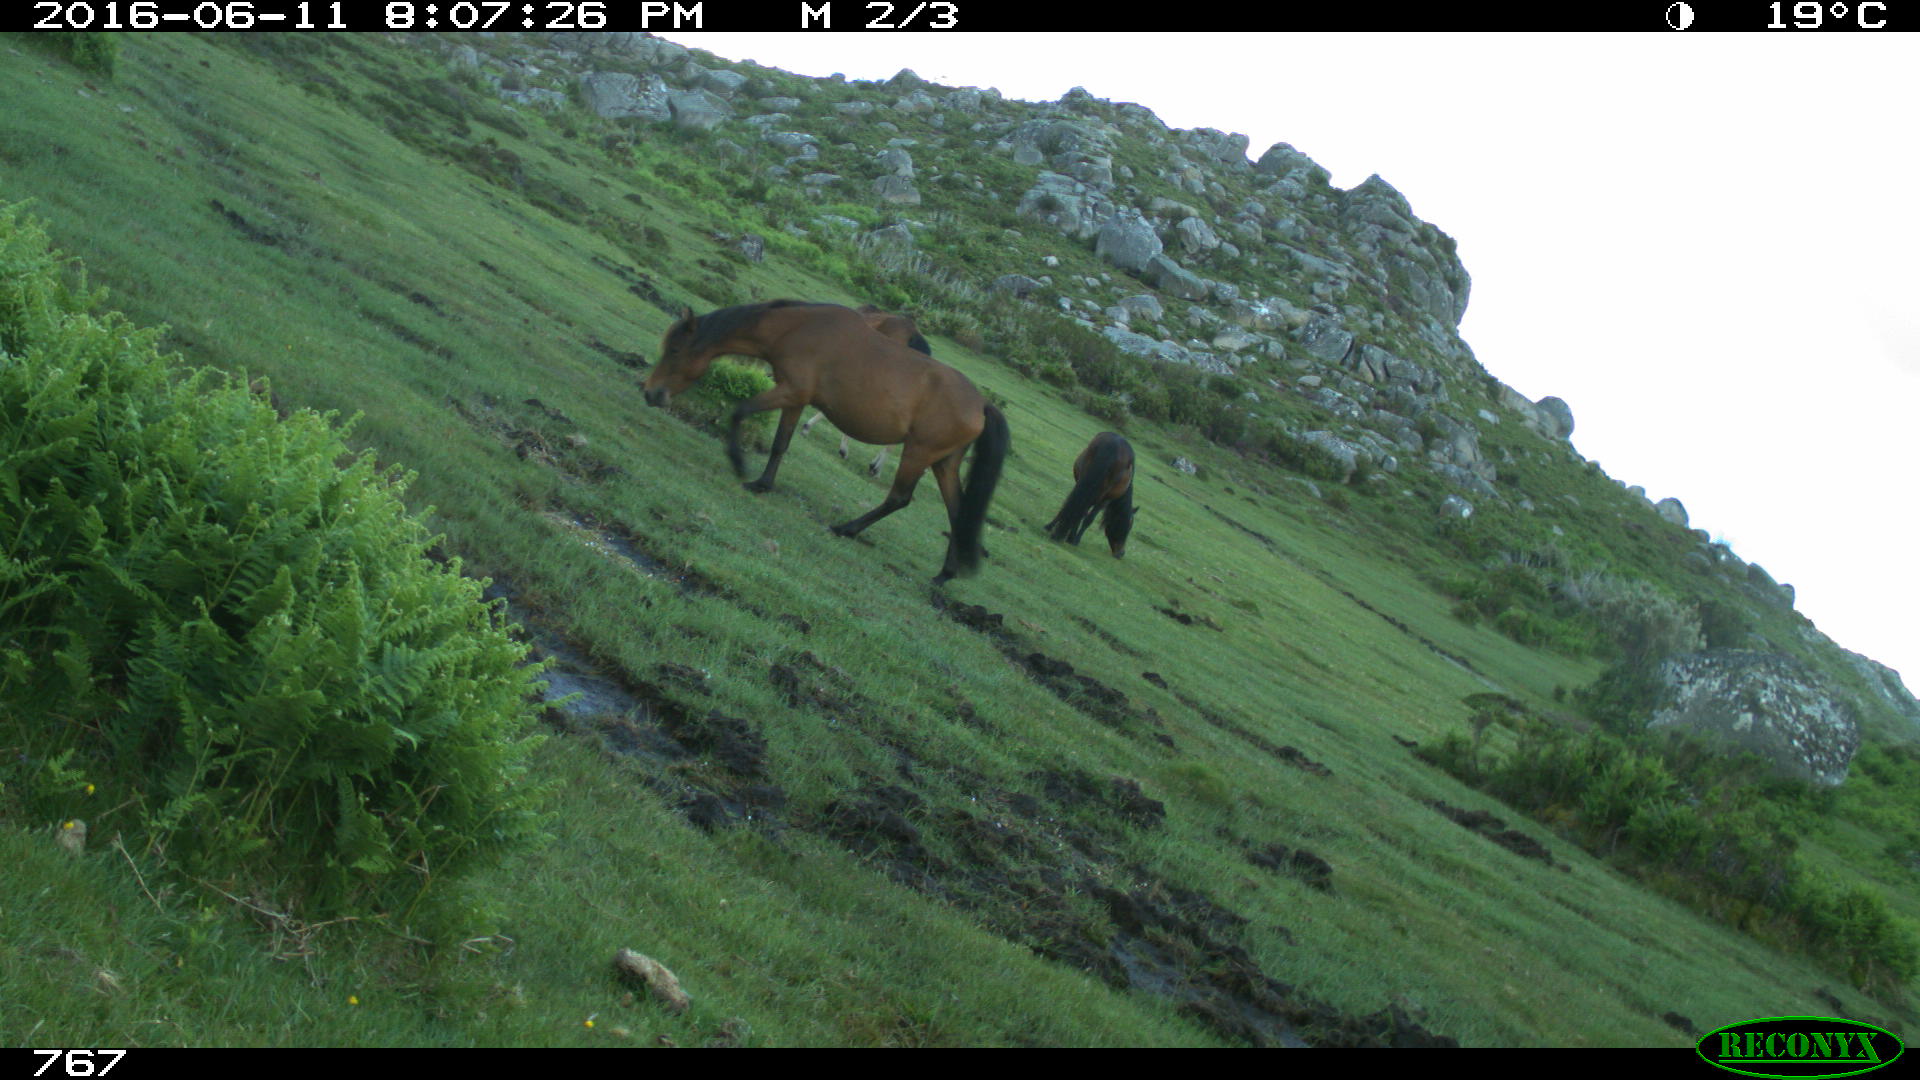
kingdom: Animalia
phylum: Chordata
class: Mammalia
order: Perissodactyla
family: Equidae
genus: Equus
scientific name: Equus caballus
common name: Horse
